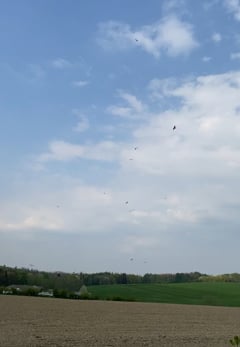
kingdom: Animalia
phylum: Chordata
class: Aves
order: Accipitriformes
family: Accipitridae
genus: Milvus
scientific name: Milvus milvus
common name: Red kite
